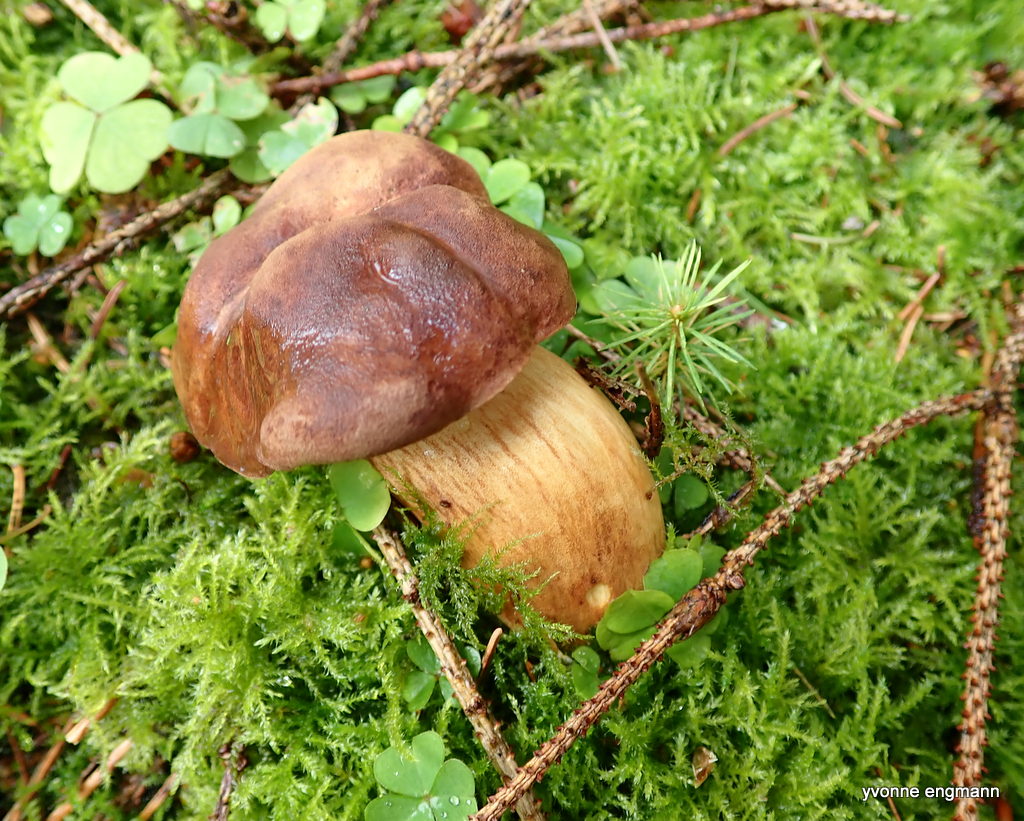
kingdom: Fungi
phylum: Basidiomycota
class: Agaricomycetes
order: Boletales
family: Boletaceae
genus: Imleria
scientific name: Imleria badia
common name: brunstokket rørhat
